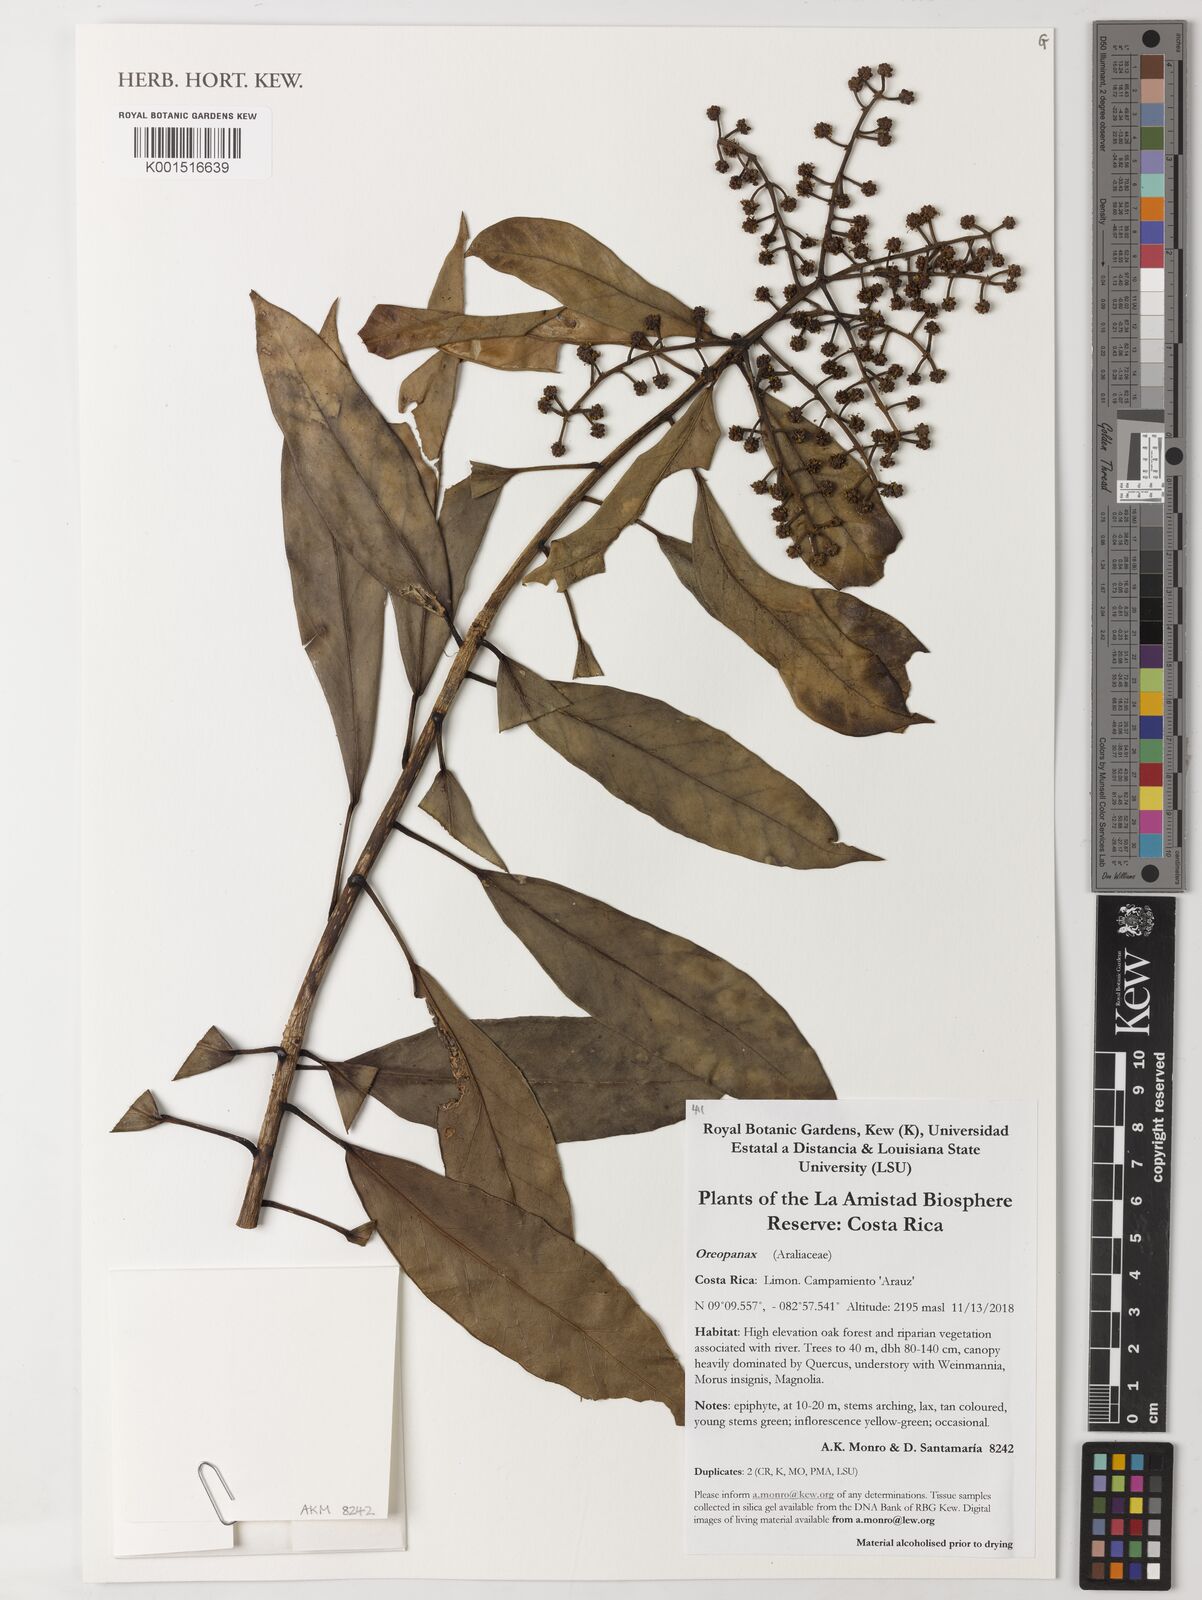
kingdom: Plantae
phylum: Tracheophyta
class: Magnoliopsida
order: Apiales
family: Araliaceae
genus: Oreopanax
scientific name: Oreopanax
